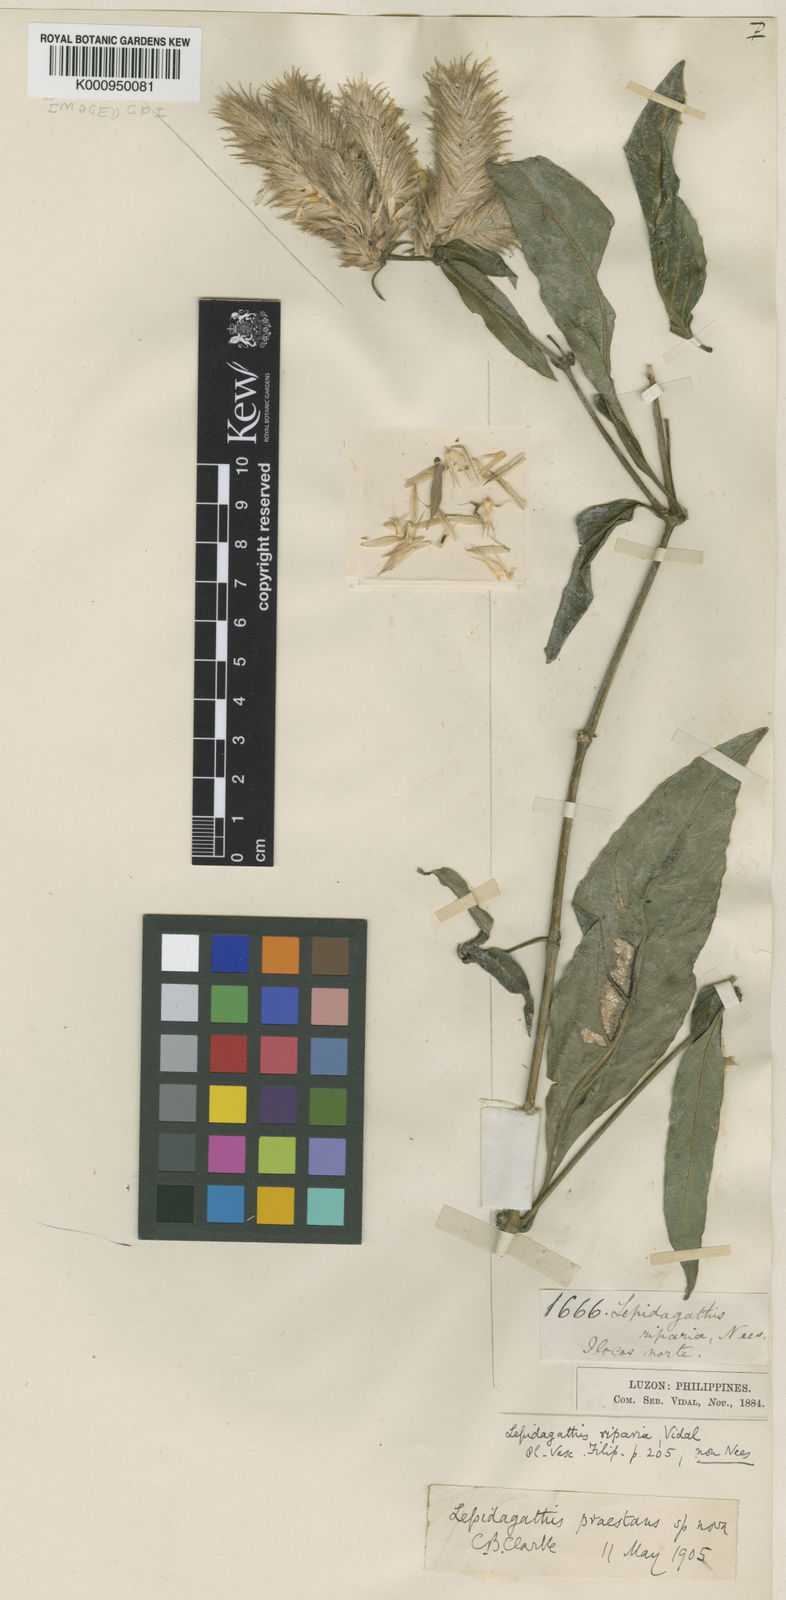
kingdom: Plantae
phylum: Tracheophyta
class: Magnoliopsida
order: Lamiales
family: Acanthaceae
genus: Lepidagathis
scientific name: Lepidagathis
